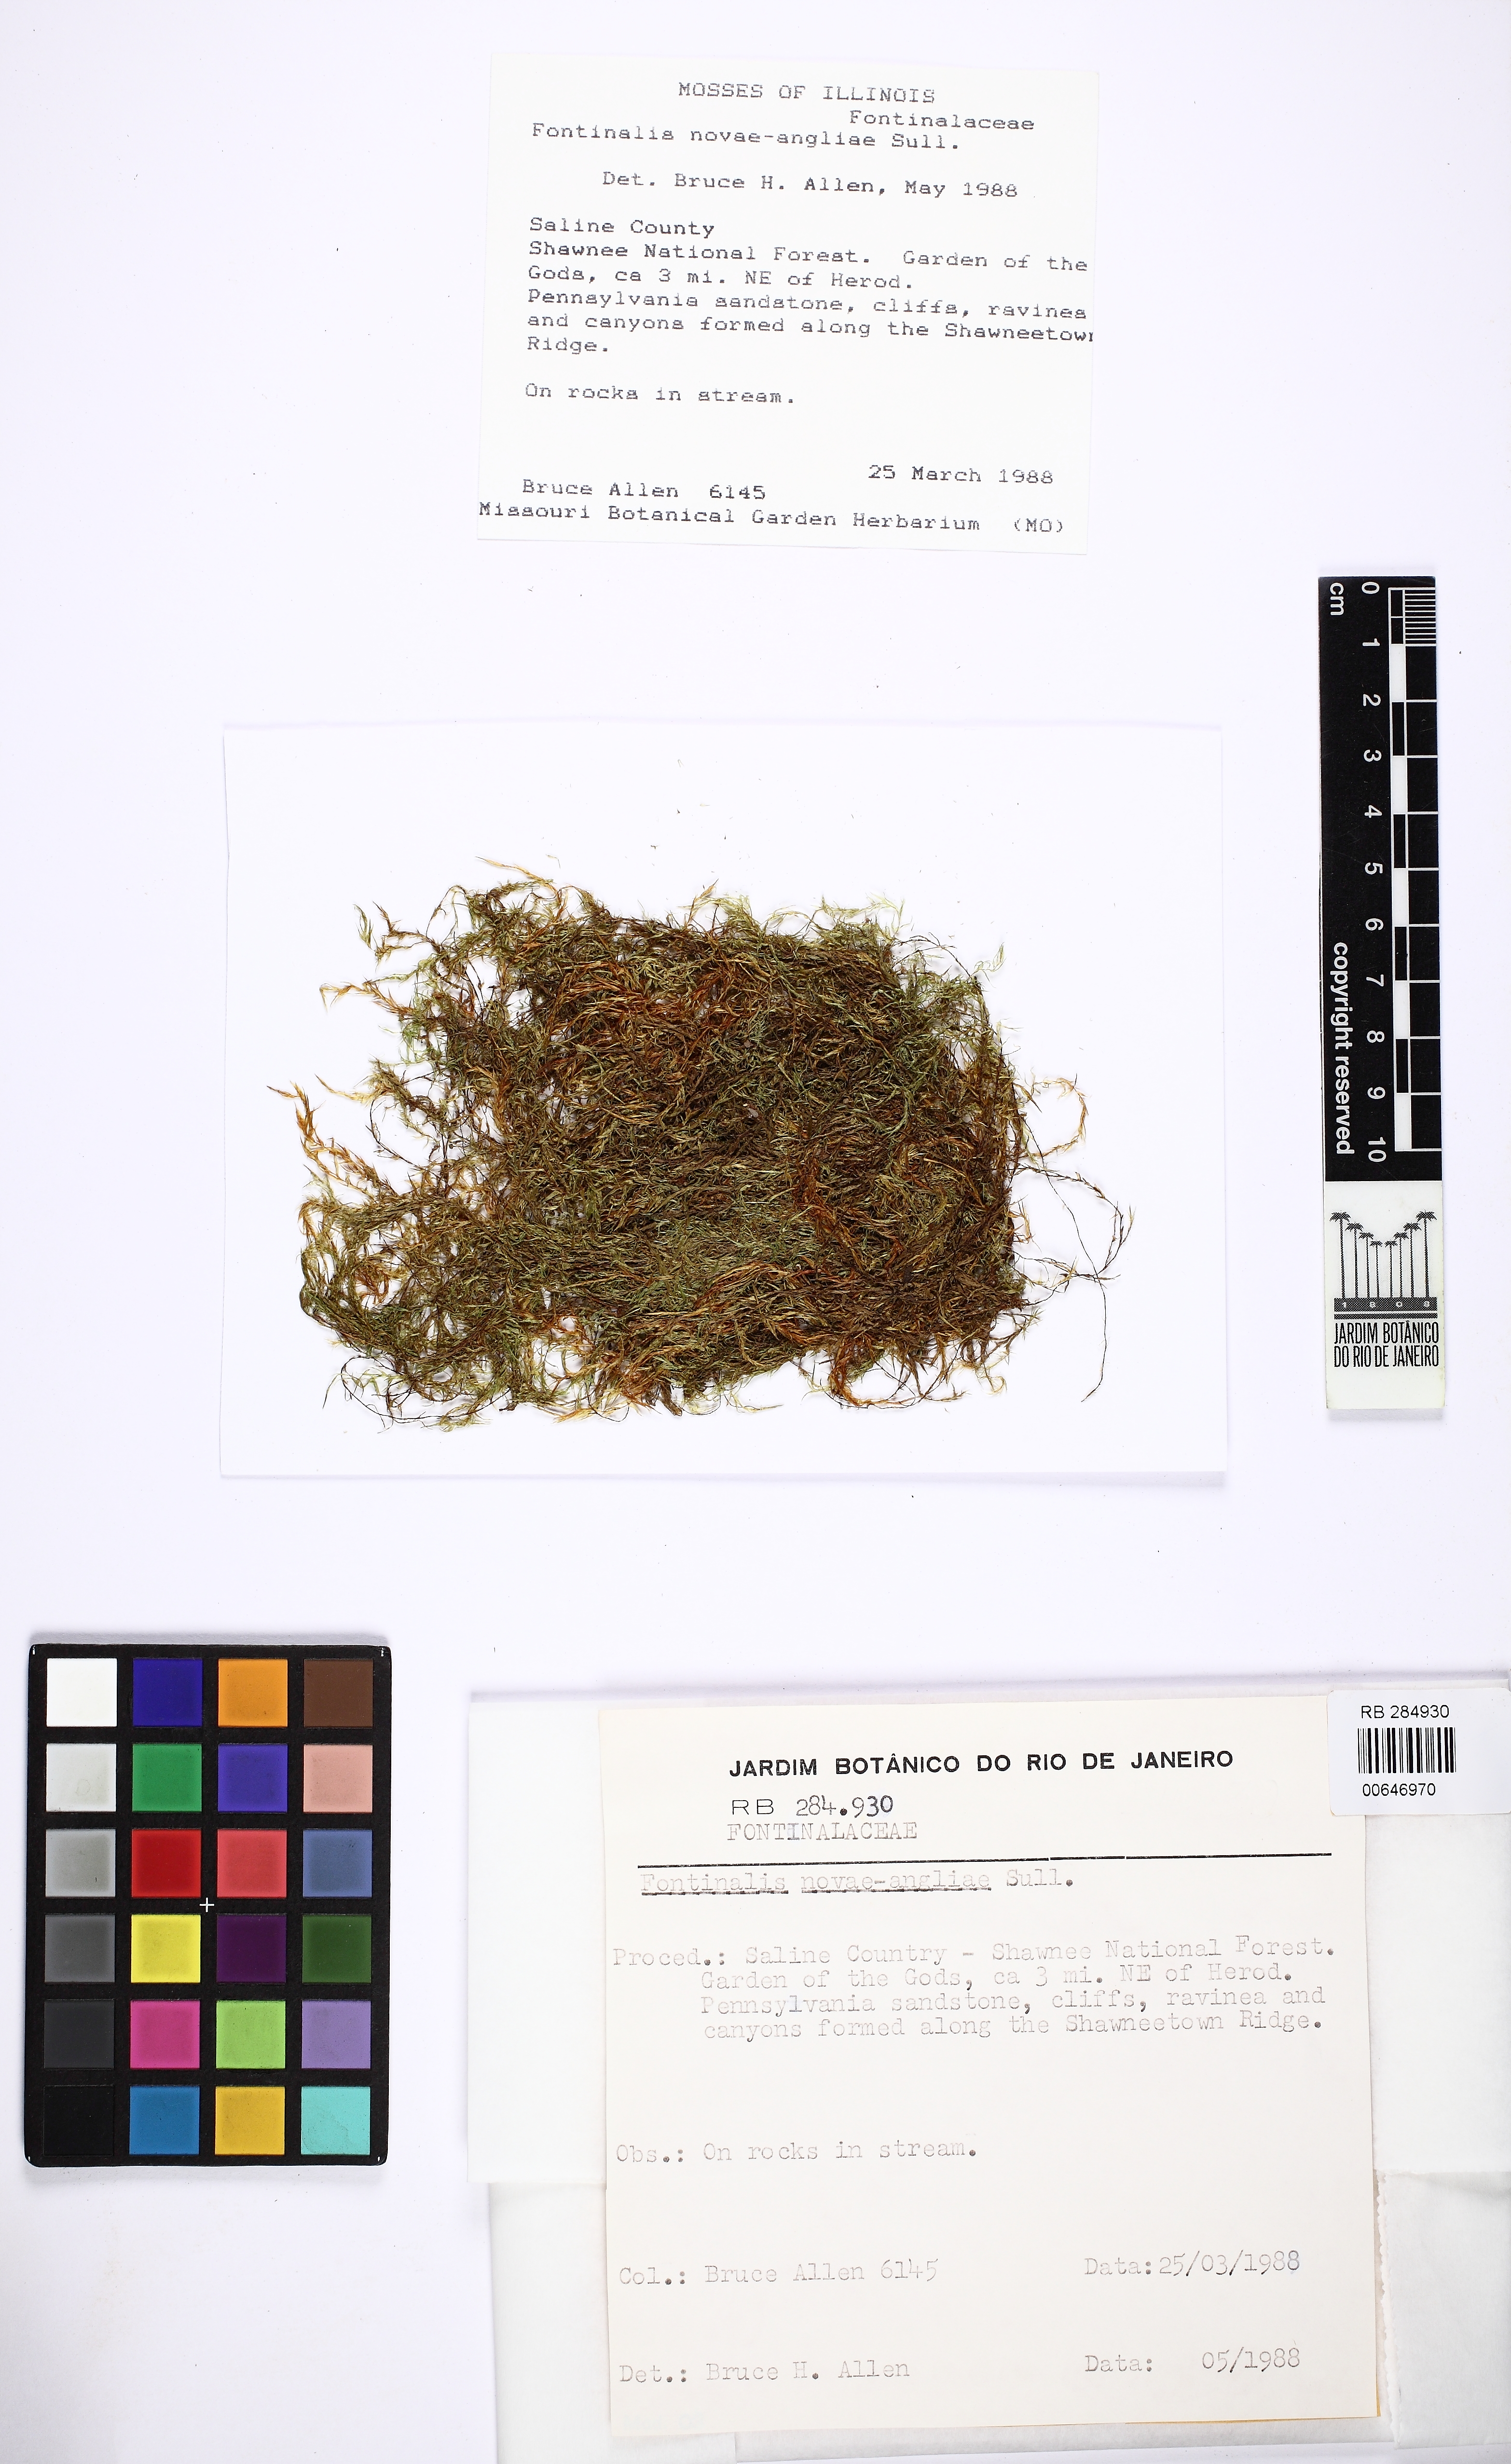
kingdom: Plantae
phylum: Bryophyta
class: Bryopsida
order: Hypnales
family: Fontinalaceae
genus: Fontinalis
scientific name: Fontinalis novae-angliae
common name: New england water moss
